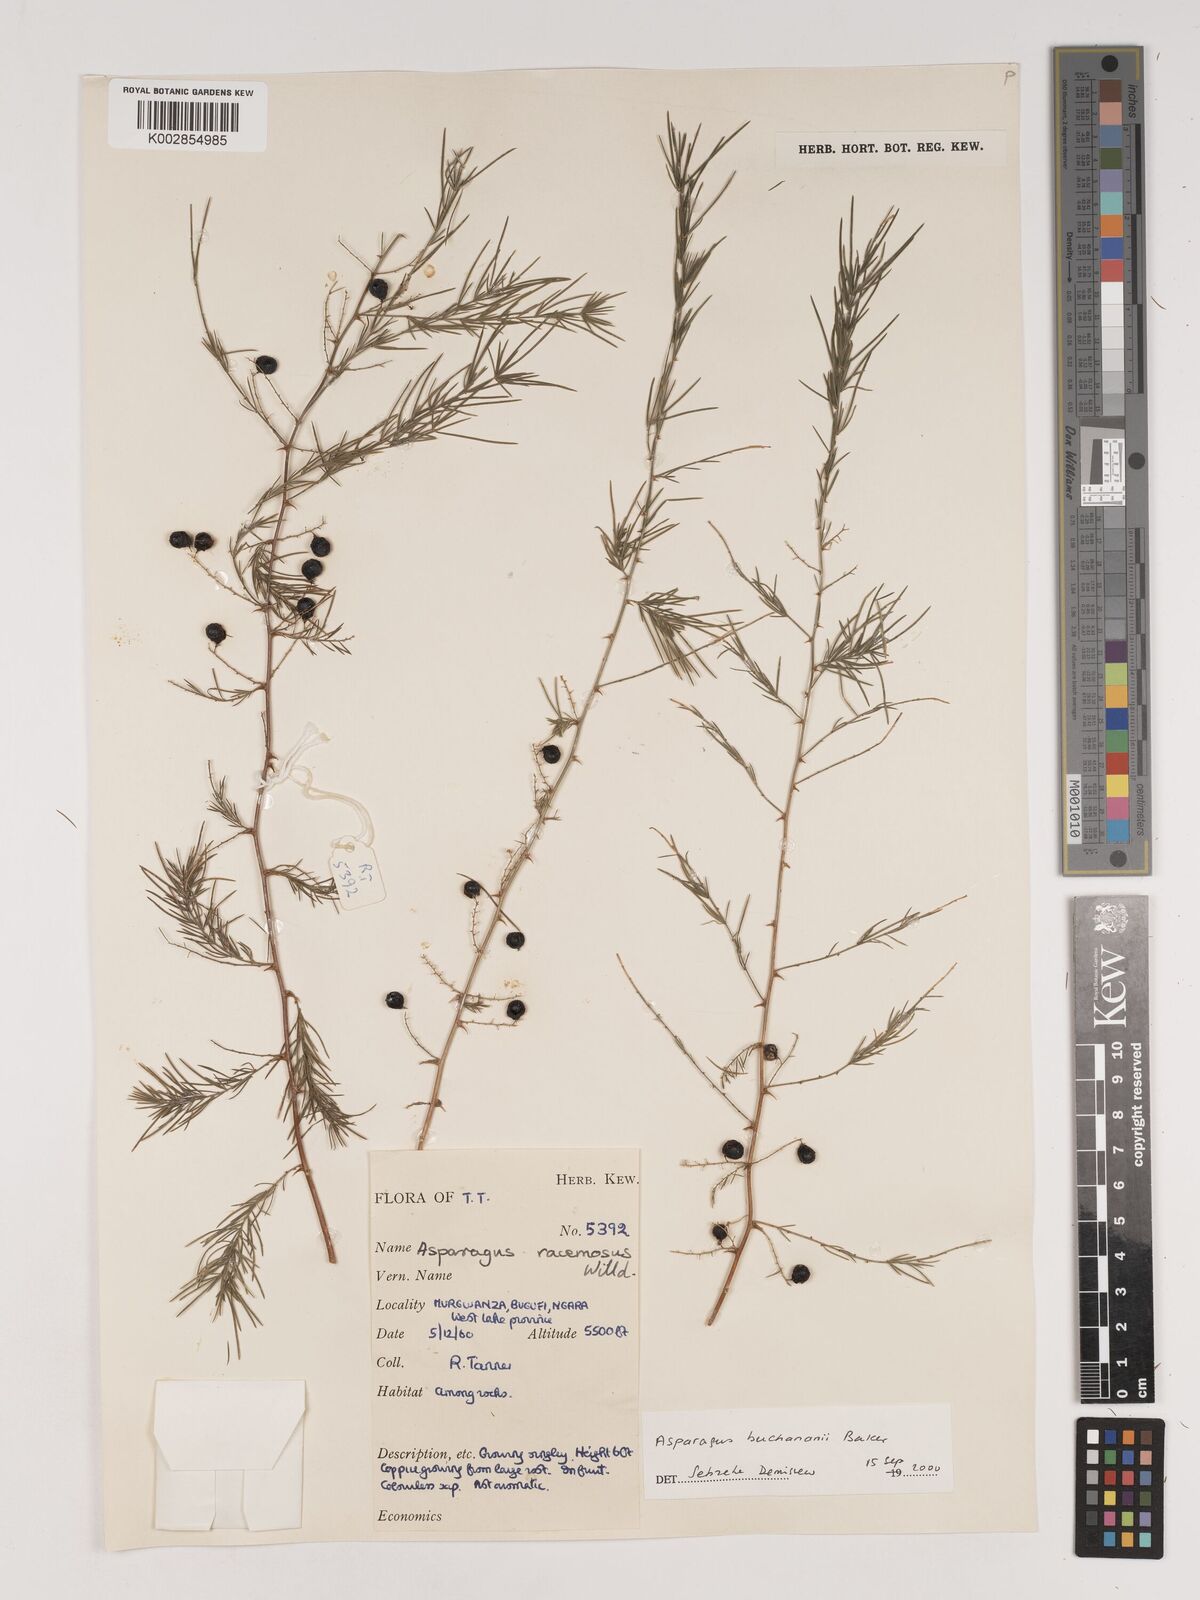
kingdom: Plantae
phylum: Tracheophyta
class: Liliopsida
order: Asparagales
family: Asparagaceae
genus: Asparagus
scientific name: Asparagus buchananii
